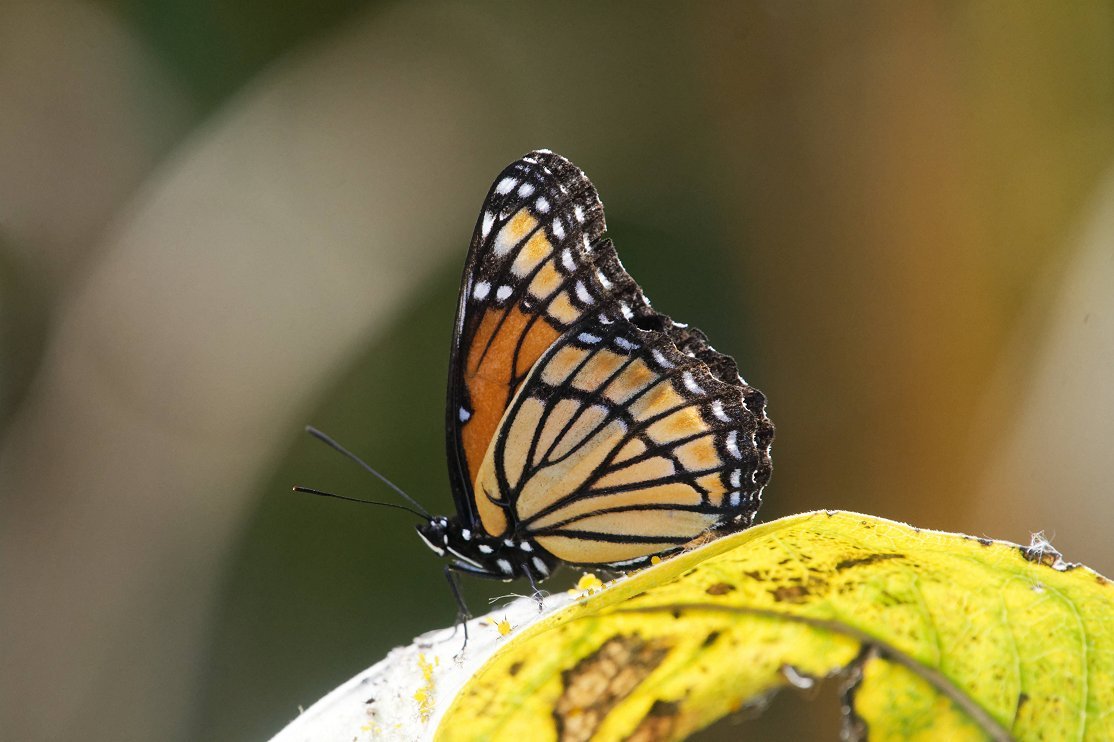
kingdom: Animalia
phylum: Arthropoda
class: Insecta
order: Lepidoptera
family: Nymphalidae
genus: Limenitis
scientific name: Limenitis archippus
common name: Viceroy
